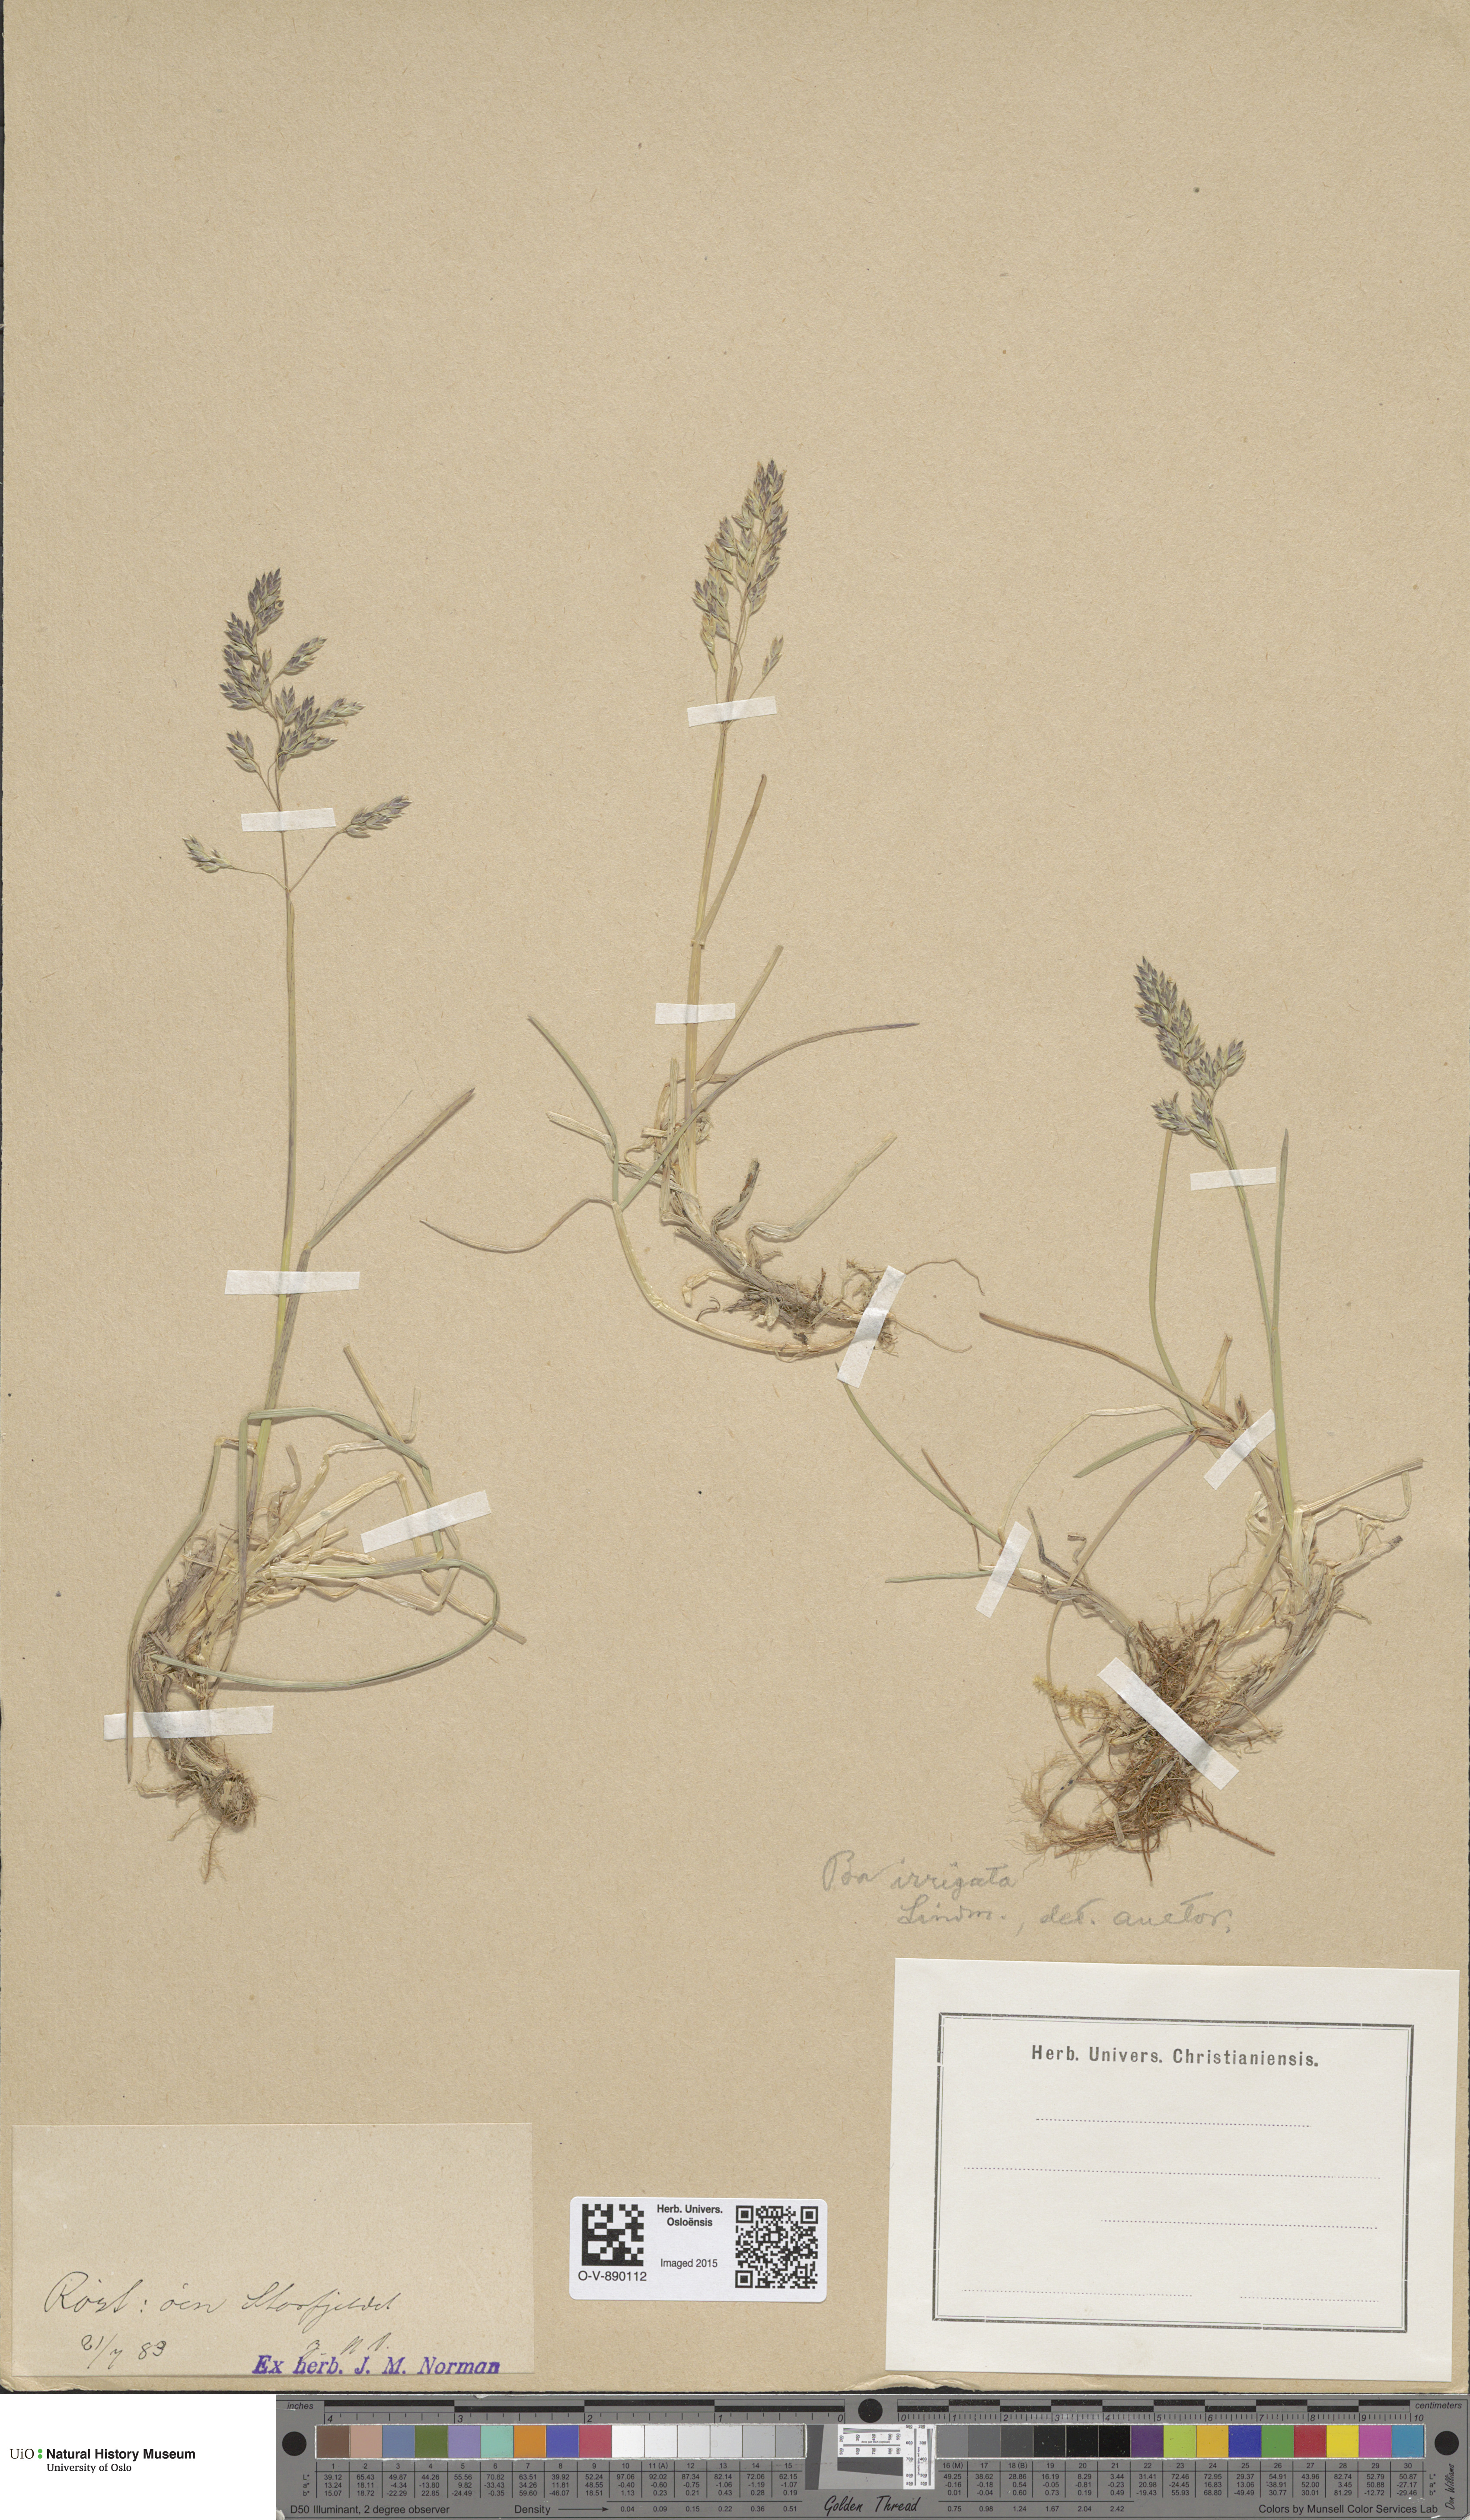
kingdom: Plantae
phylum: Tracheophyta
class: Liliopsida
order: Poales
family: Poaceae
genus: Poa
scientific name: Poa humilis
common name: Spreading meadow-grass
